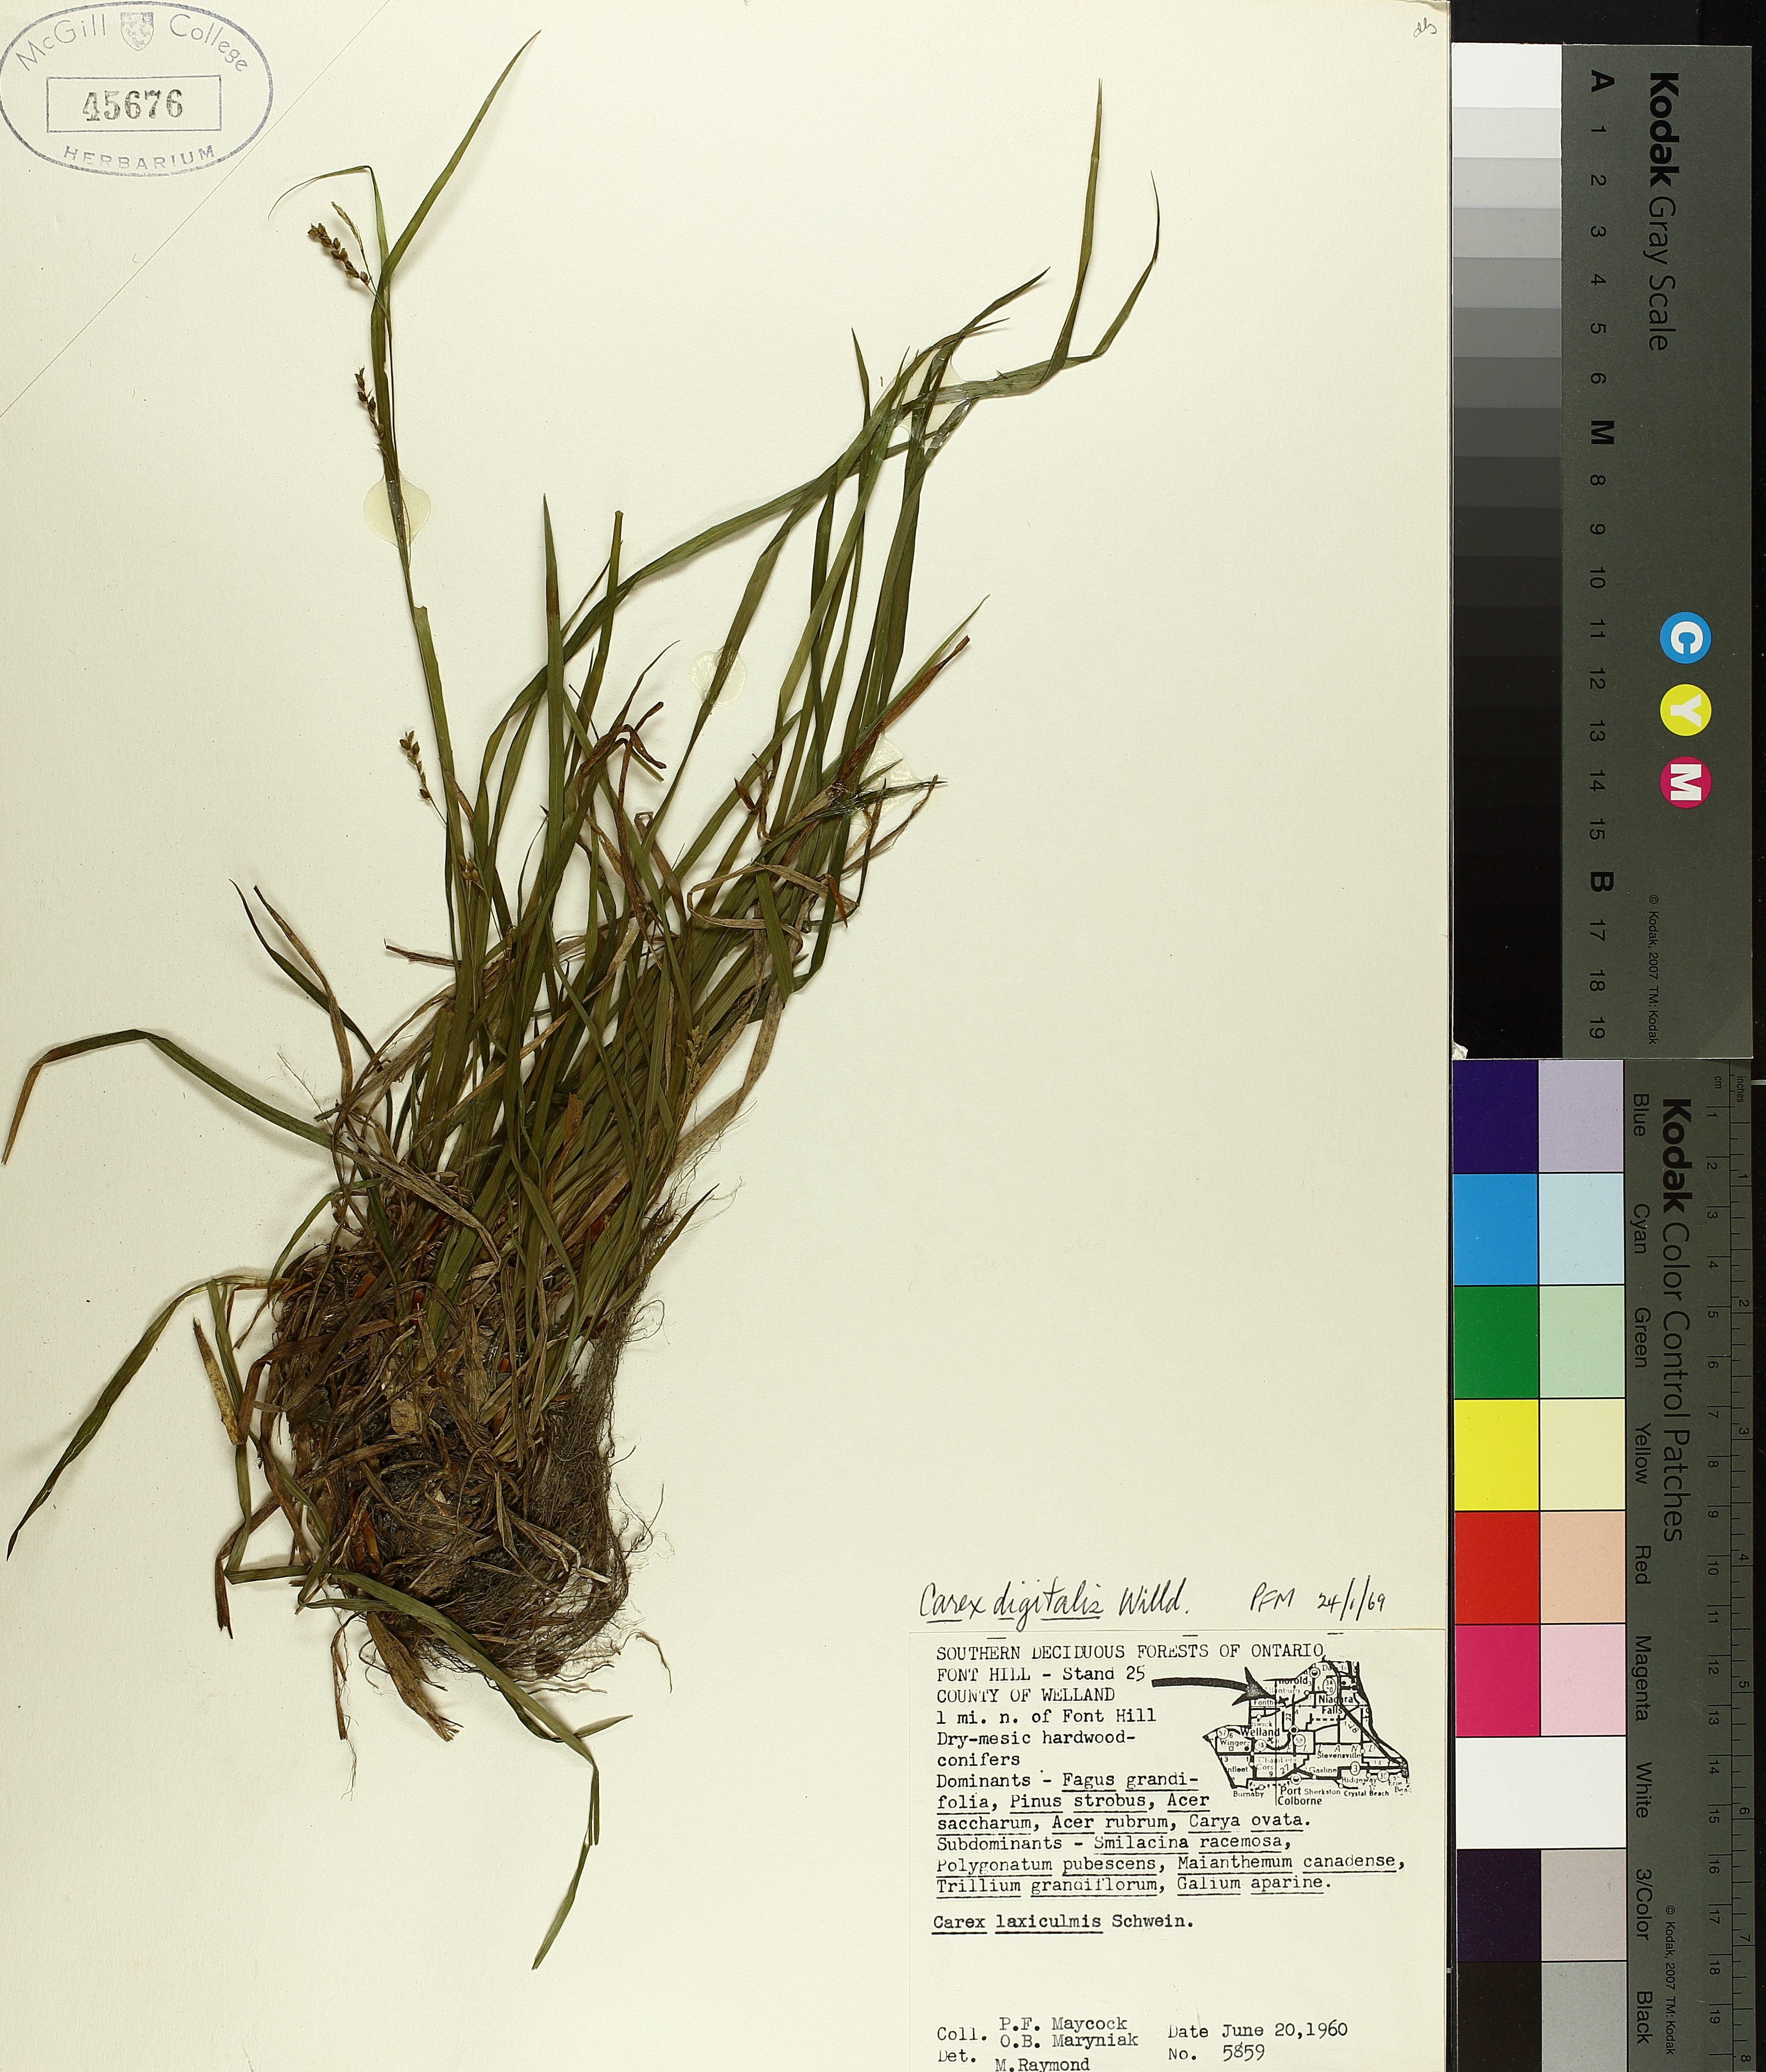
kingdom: Plantae
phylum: Tracheophyta
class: Liliopsida
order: Poales
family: Cyperaceae
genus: Carex
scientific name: Carex digitalis
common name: Slender wood sedge
